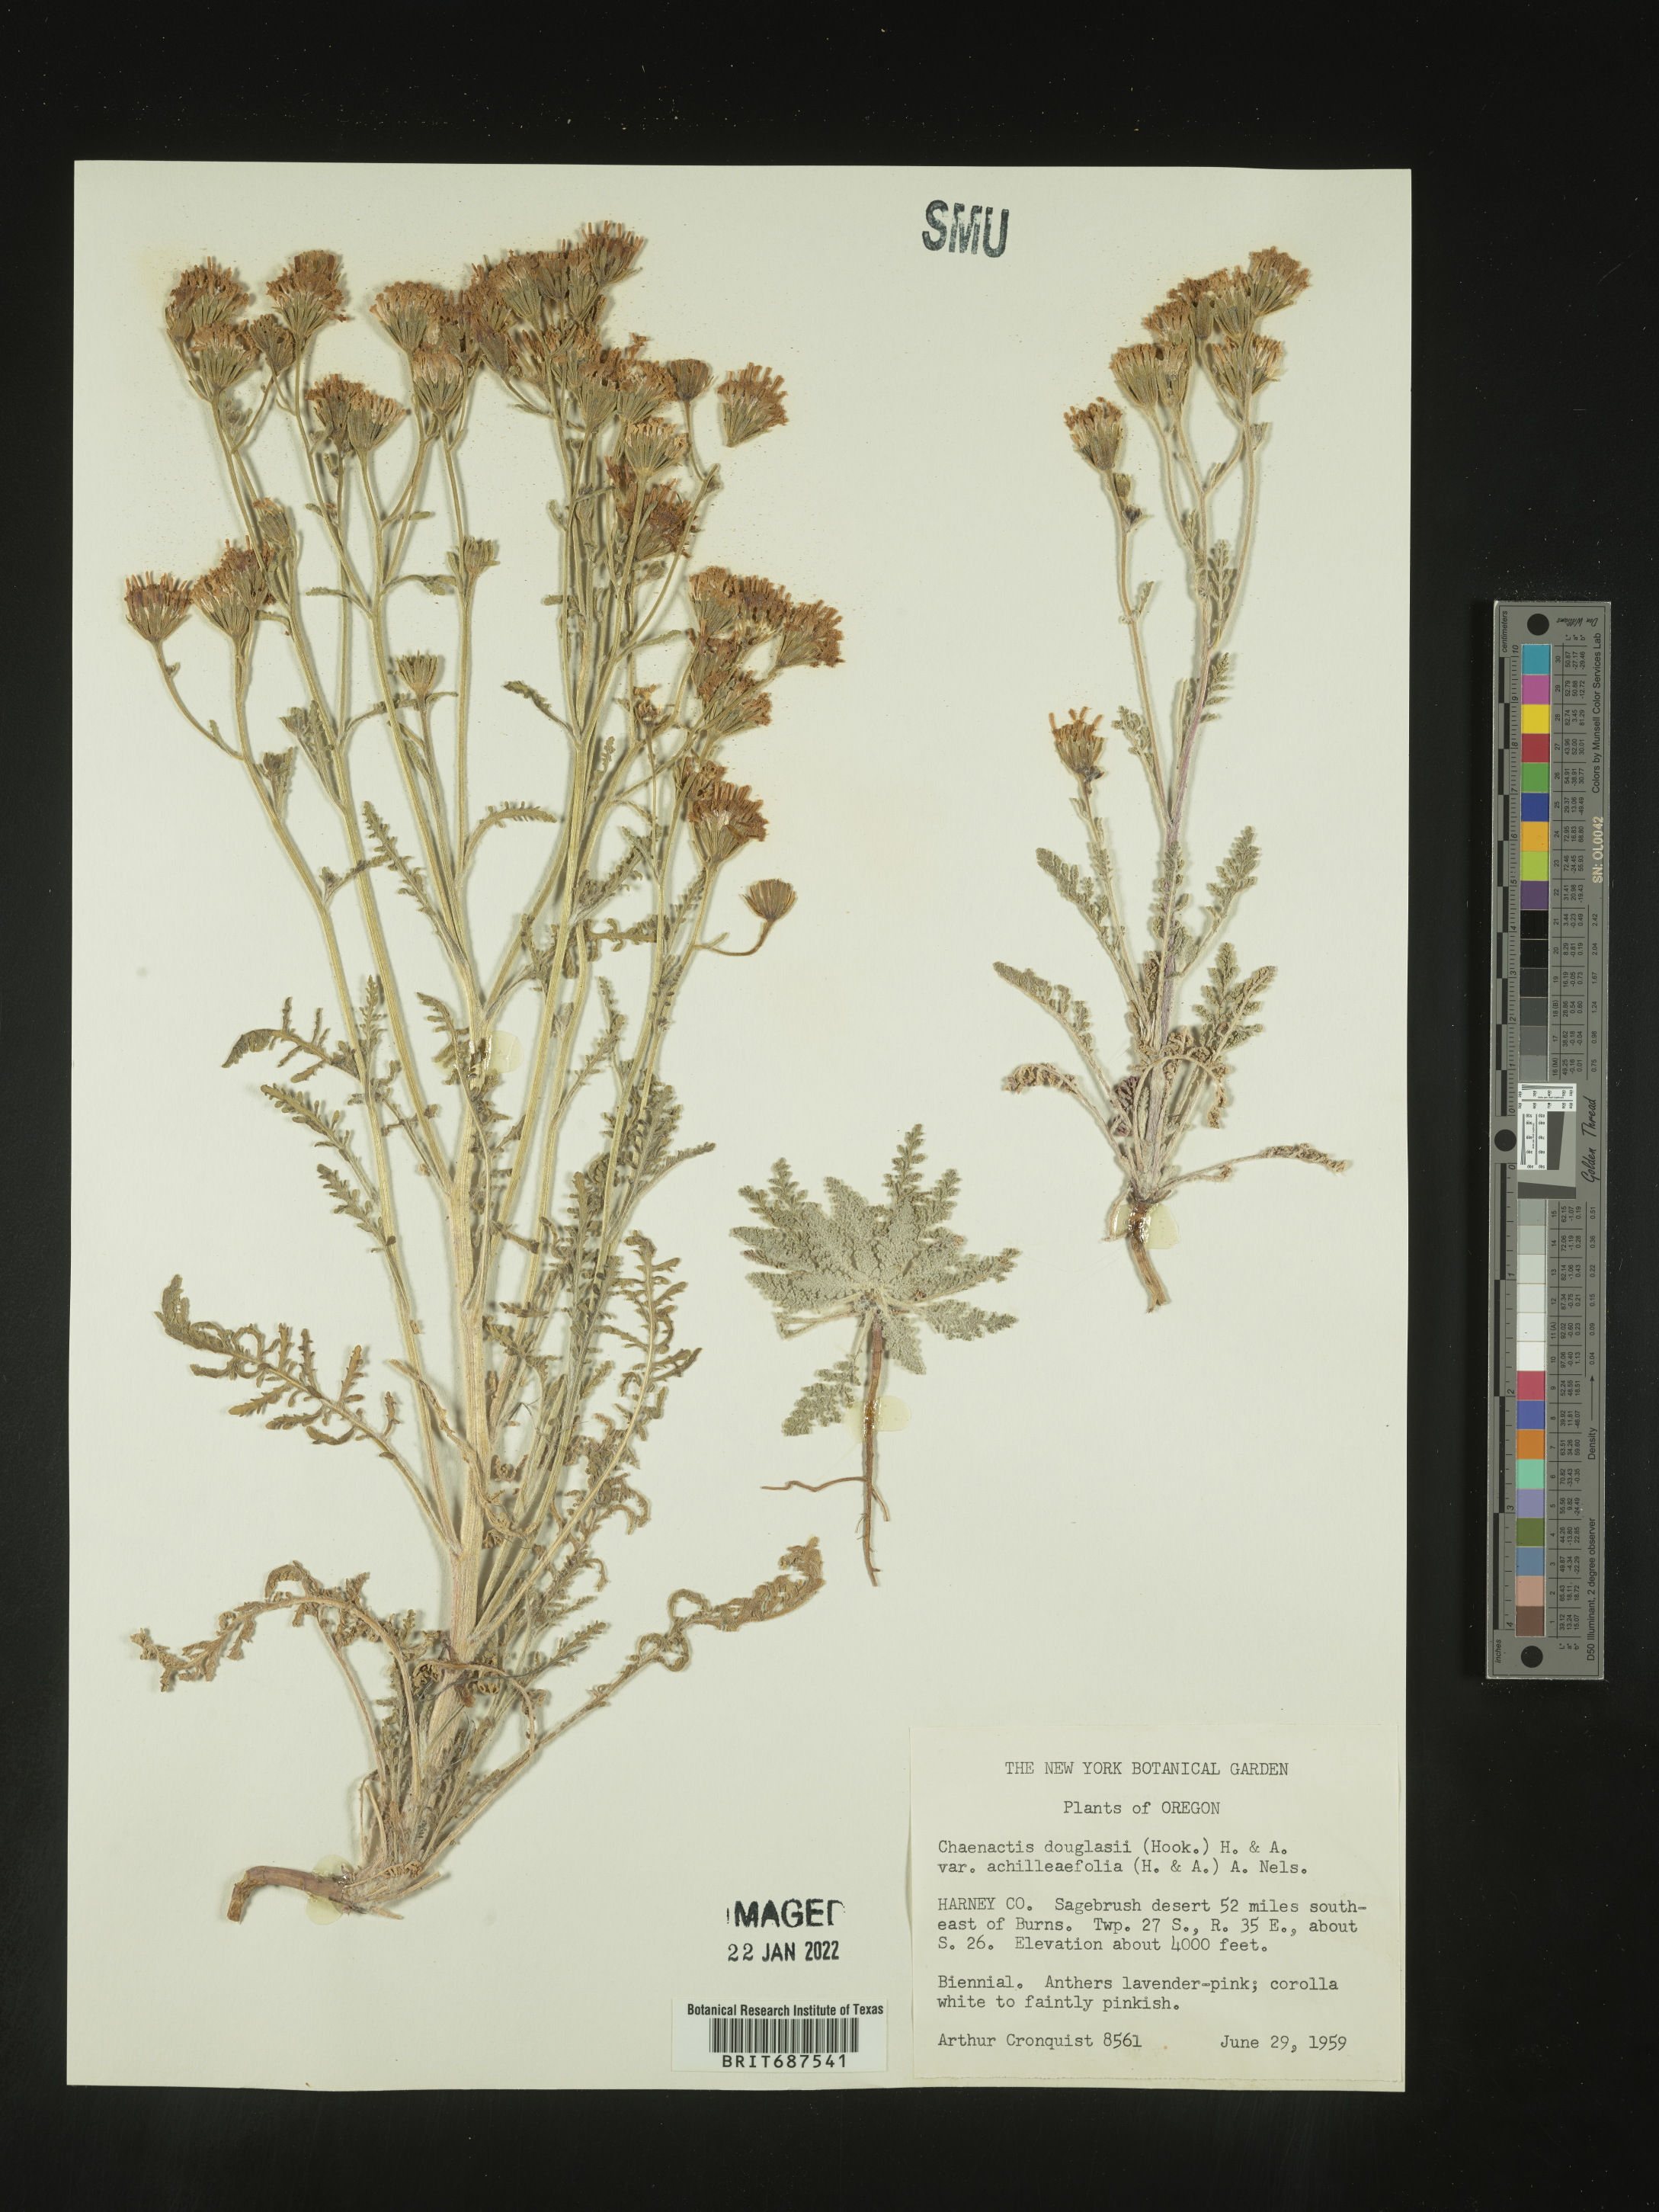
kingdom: Plantae
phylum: Tracheophyta
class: Magnoliopsida
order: Asterales
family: Asteraceae
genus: Chaenactis
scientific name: Chaenactis douglasii
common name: Hoary pincushion
